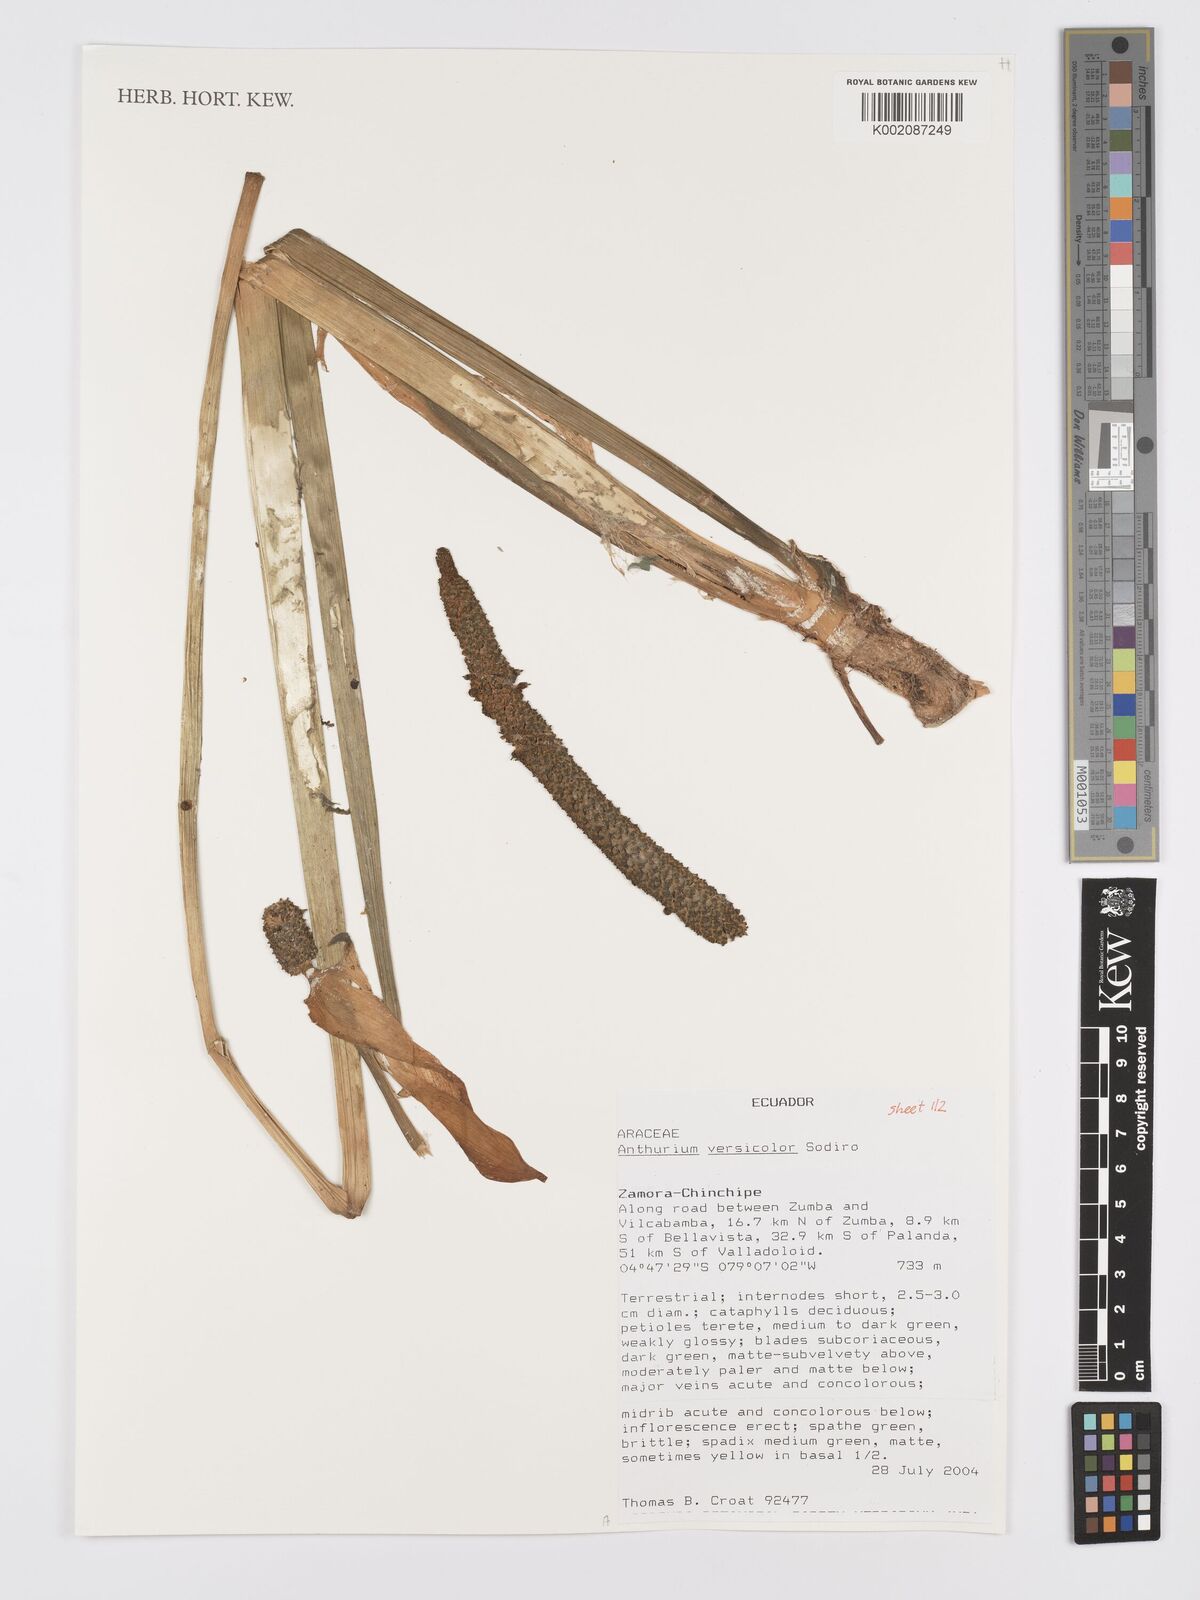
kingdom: Plantae
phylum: Tracheophyta
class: Liliopsida
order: Alismatales
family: Araceae
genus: Anthurium
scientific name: Anthurium versicolor
